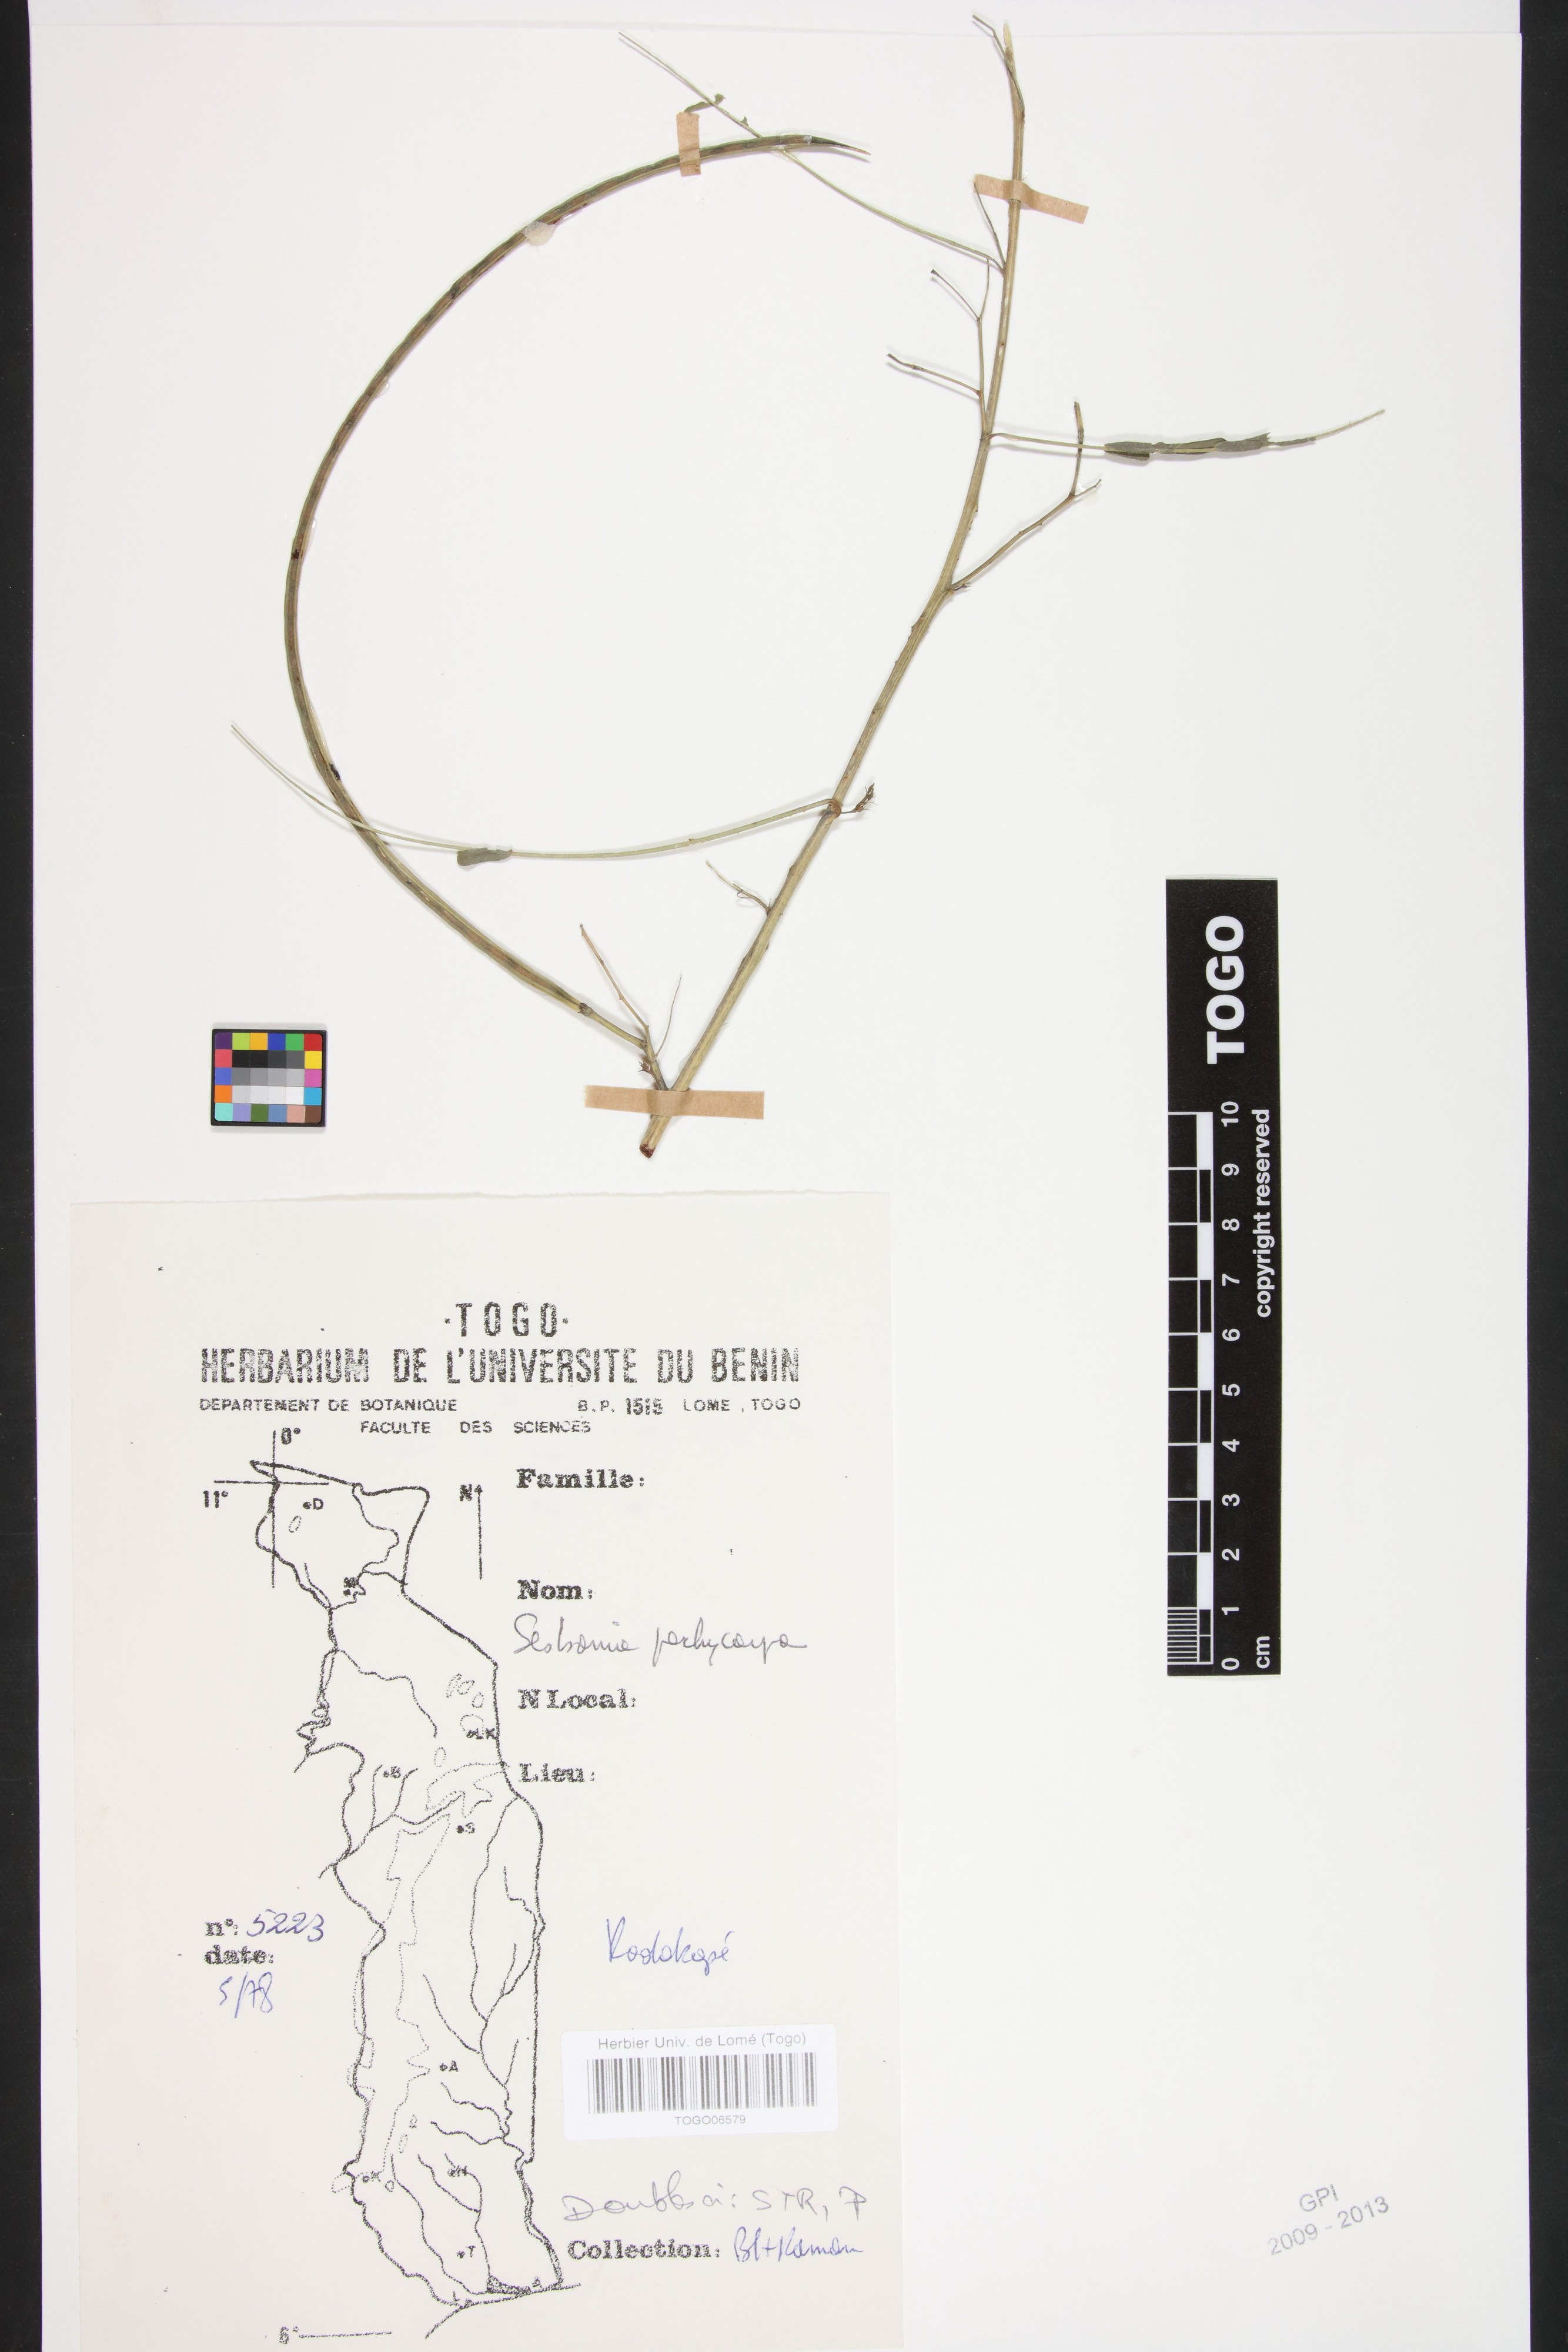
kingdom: Plantae
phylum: Tracheophyta
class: Magnoliopsida
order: Fabales
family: Fabaceae
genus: Sesbania
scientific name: Sesbania pachycarpa
